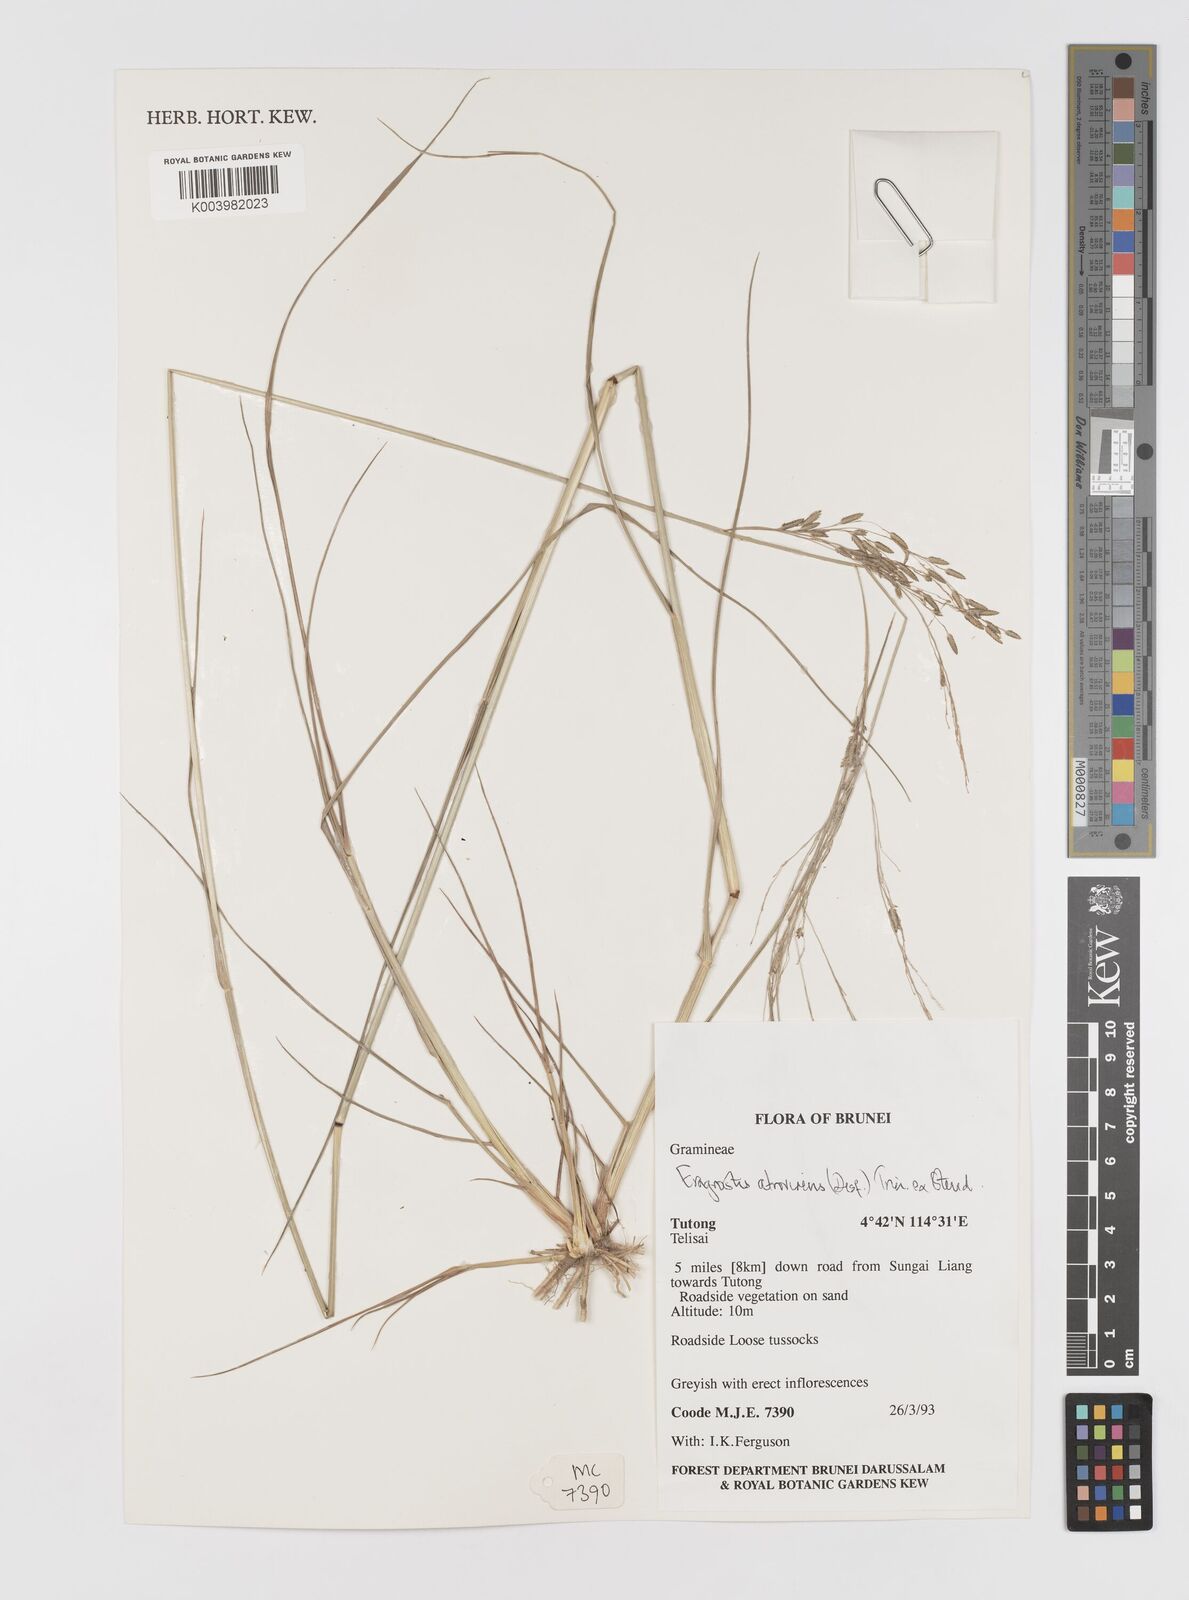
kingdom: Plantae
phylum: Tracheophyta
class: Liliopsida
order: Poales
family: Poaceae
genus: Eragrostis
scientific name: Eragrostis atrovirens
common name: Thalia lovegrass
